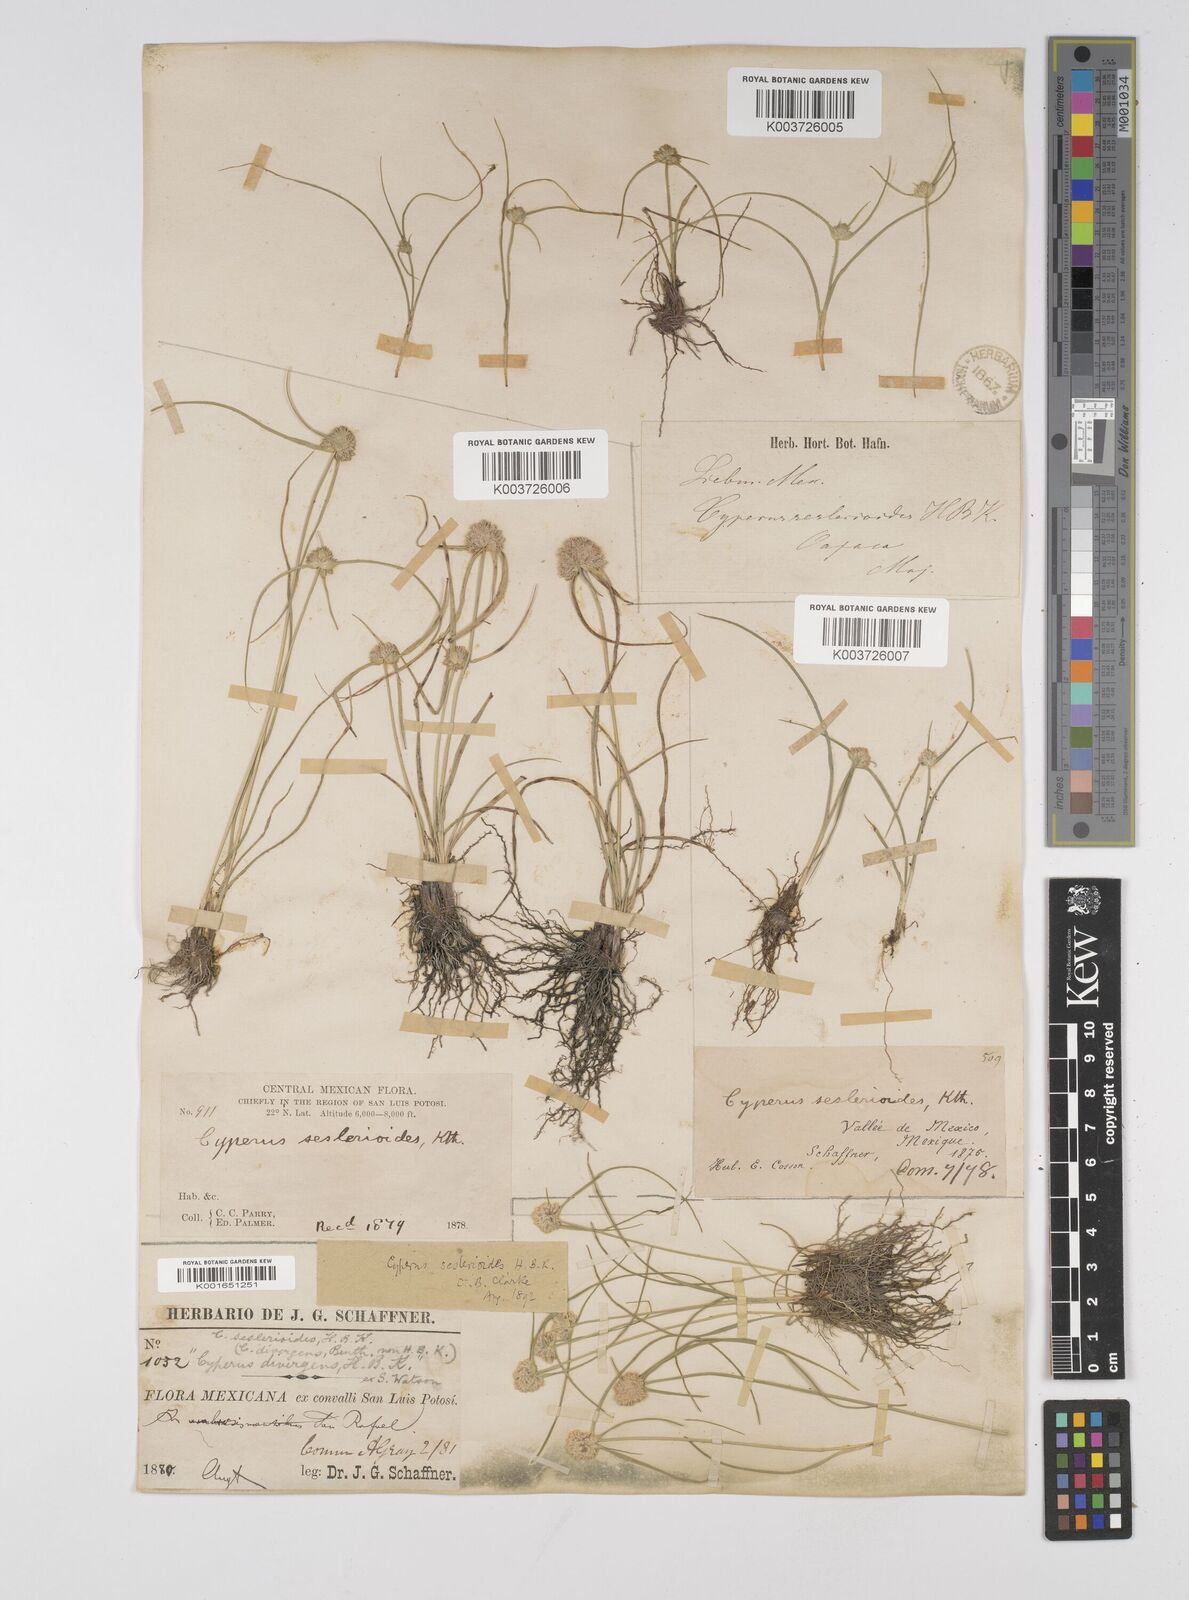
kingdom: Plantae
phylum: Tracheophyta
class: Liliopsida
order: Poales
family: Cyperaceae
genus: Cyperus
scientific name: Cyperus seslerioides
